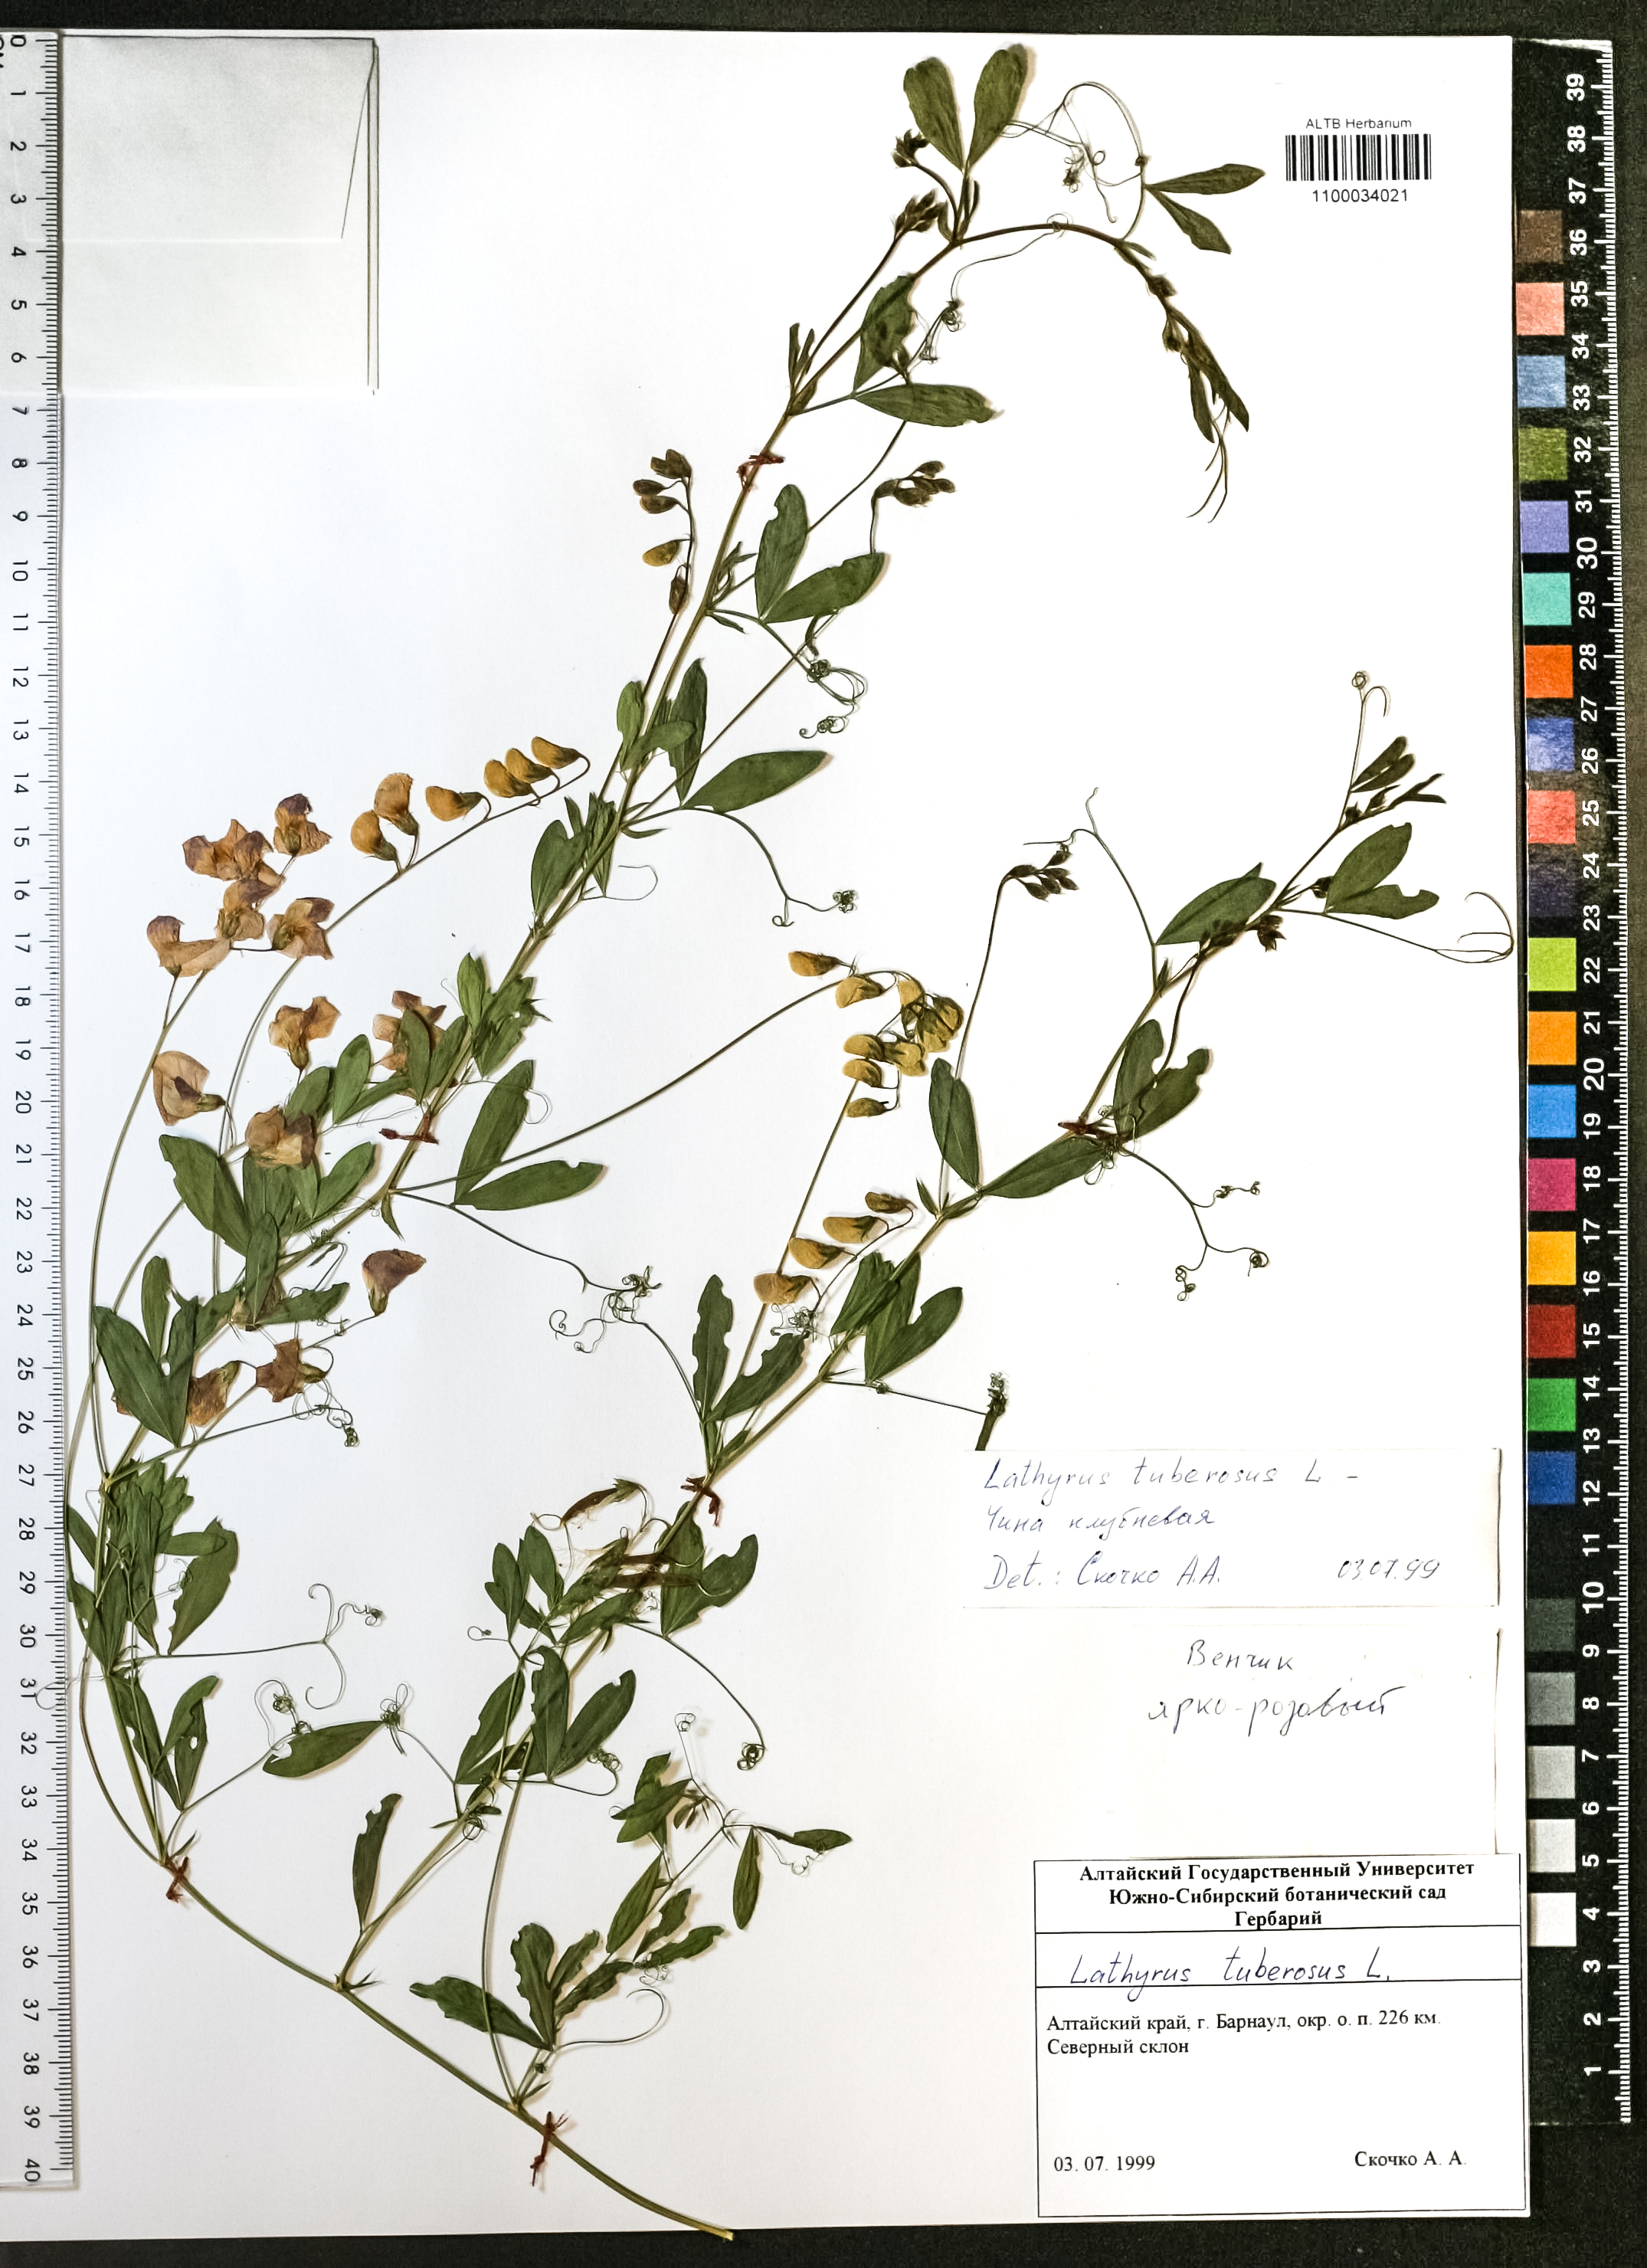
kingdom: Plantae
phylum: Tracheophyta
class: Magnoliopsida
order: Fabales
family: Fabaceae
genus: Lathyrus
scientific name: Lathyrus tuberosus
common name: Tuberous pea
